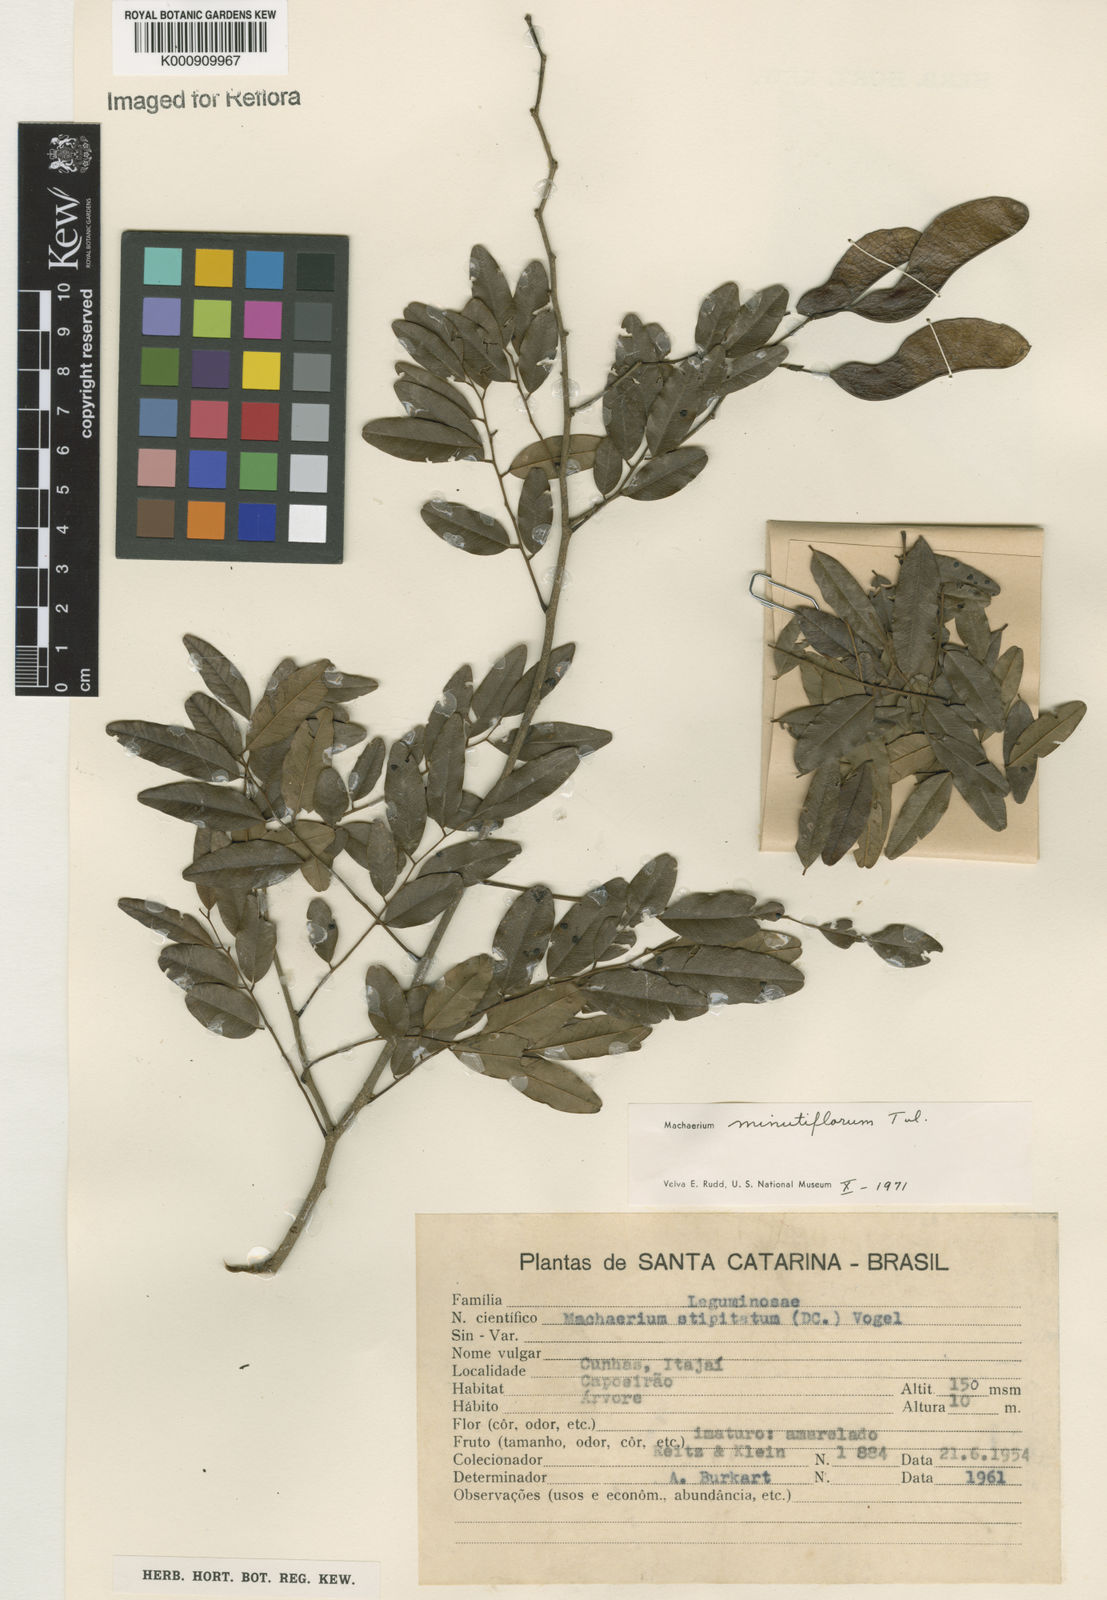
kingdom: Plantae
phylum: Tracheophyta
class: Magnoliopsida
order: Fabales
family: Fabaceae
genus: Machaerium
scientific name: Machaerium stipitatum
